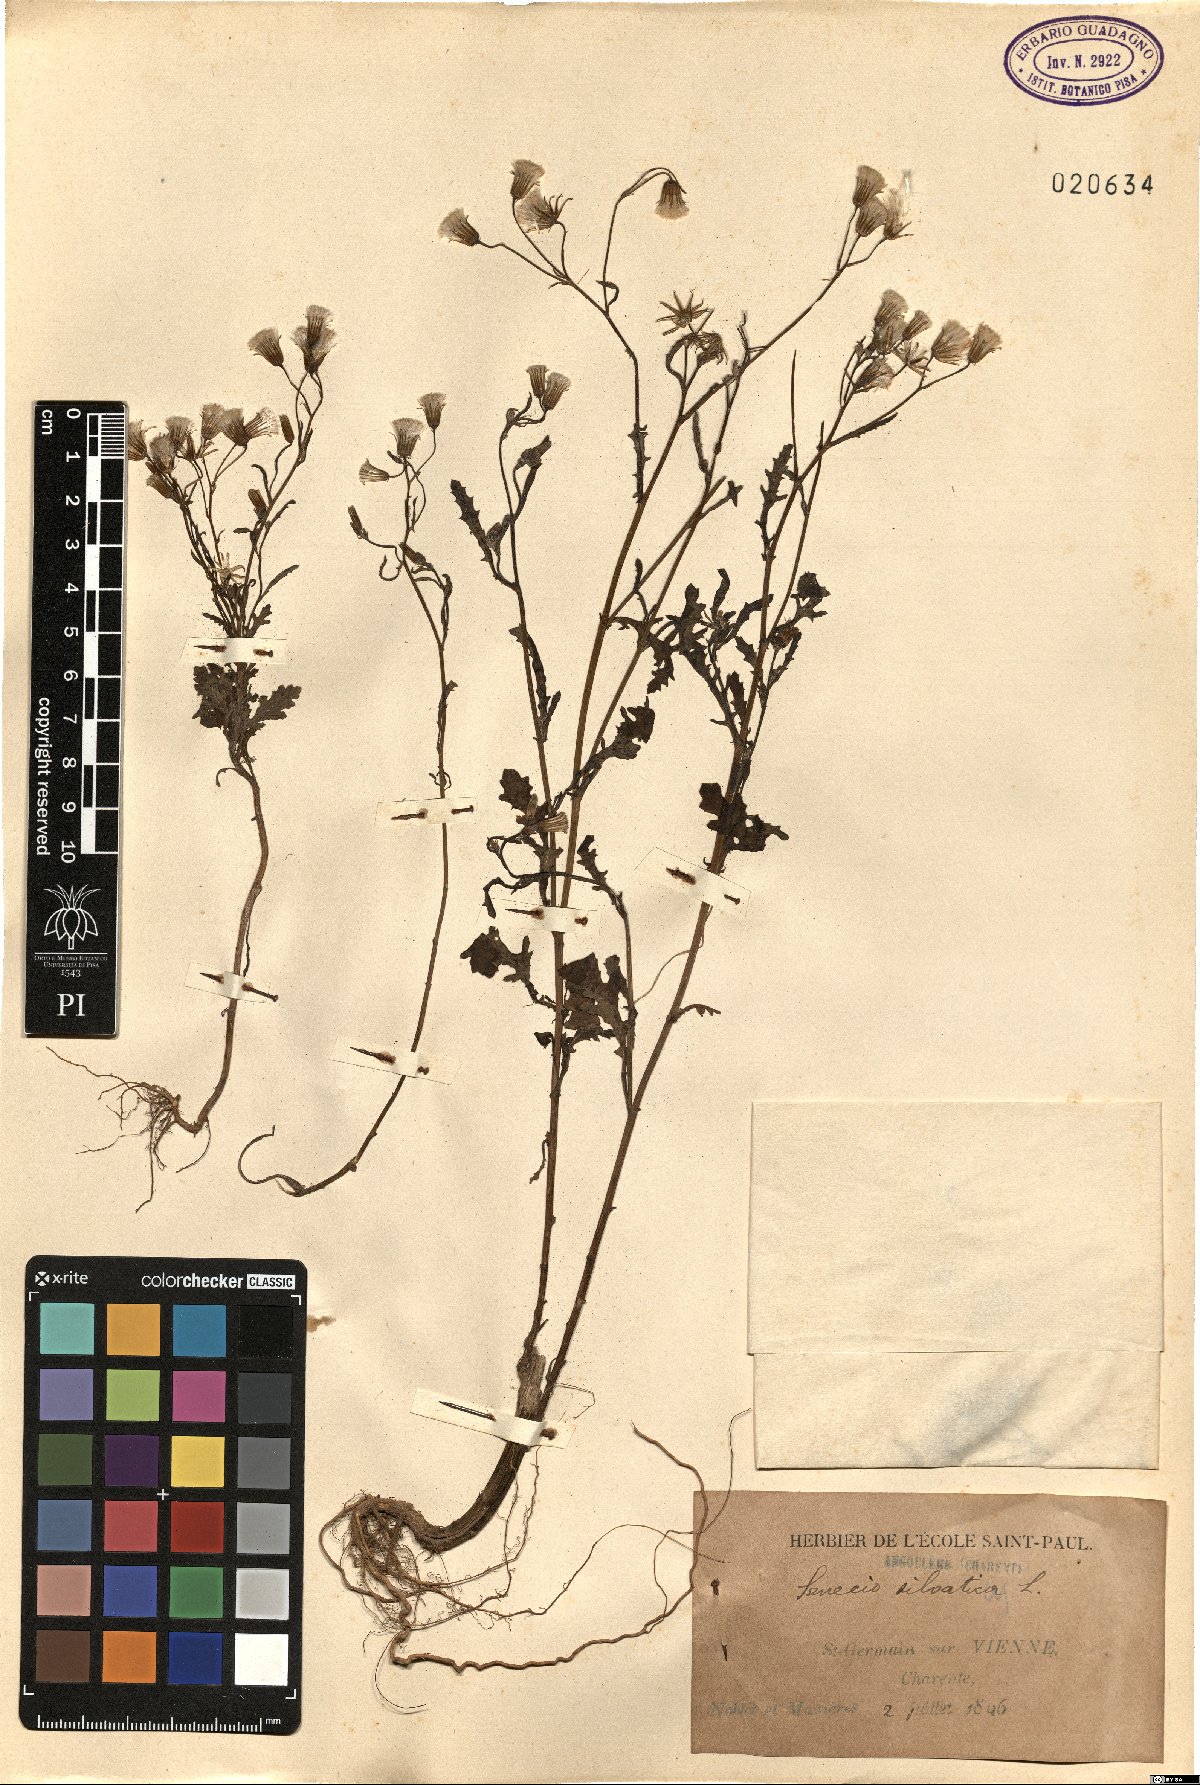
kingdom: Plantae
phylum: Tracheophyta
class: Magnoliopsida
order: Asterales
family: Asteraceae
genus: Senecio
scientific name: Senecio sylvaticus
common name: Woodland ragwort
